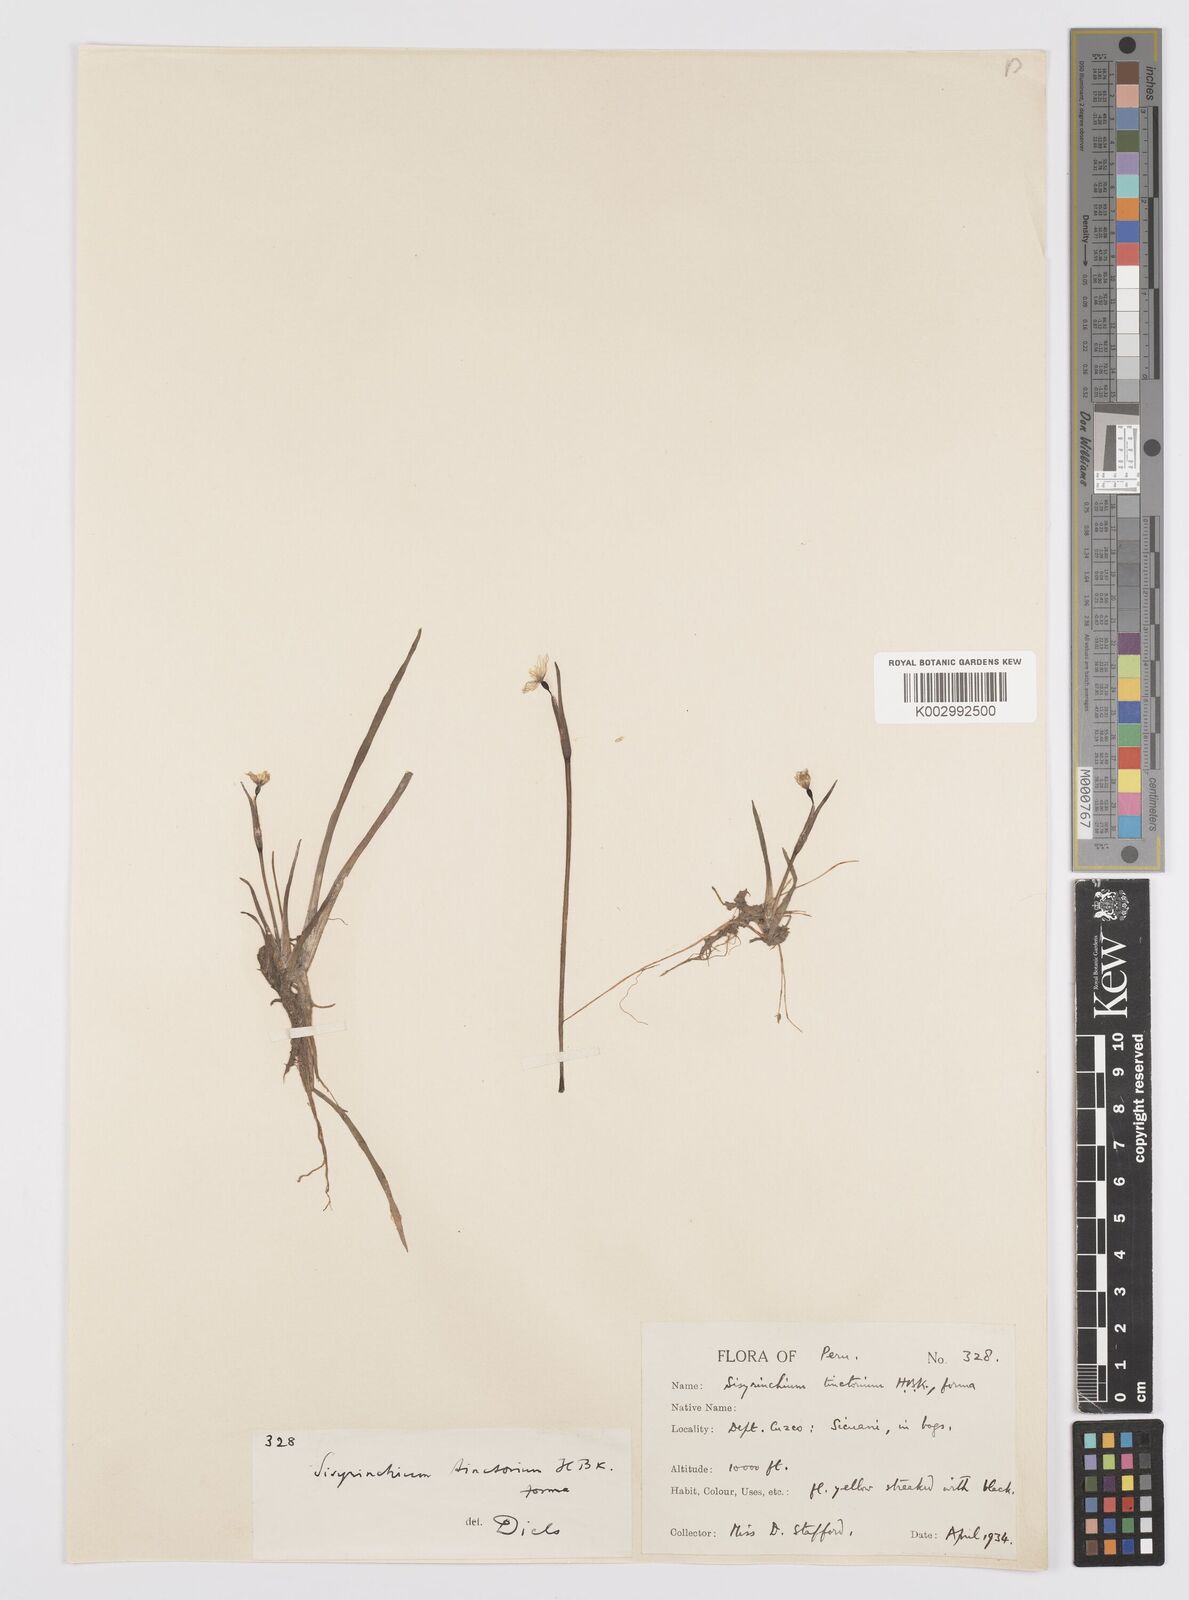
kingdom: Plantae
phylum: Tracheophyta
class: Liliopsida
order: Asparagales
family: Iridaceae
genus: Sisyrinchium
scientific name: Sisyrinchium tinctorium
